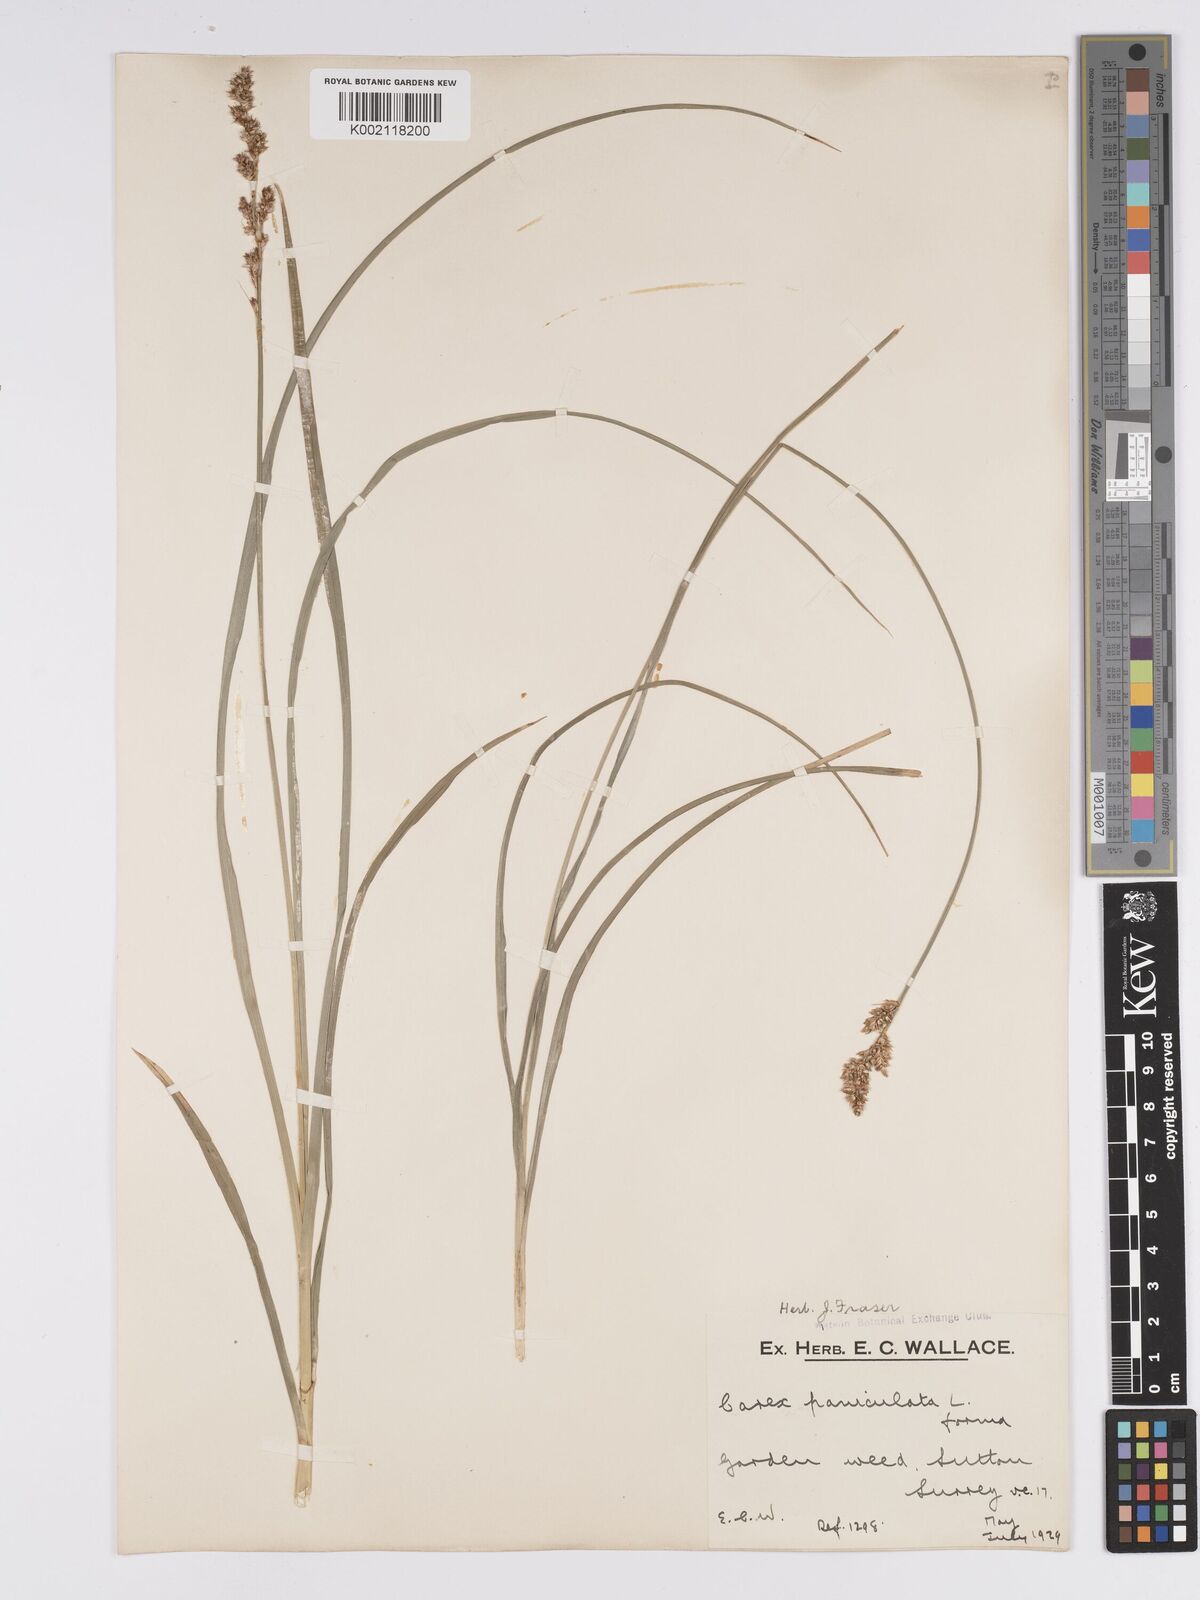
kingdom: Plantae
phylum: Tracheophyta
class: Liliopsida
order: Poales
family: Cyperaceae
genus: Carex
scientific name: Carex paniculata
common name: Greater tussock-sedge
